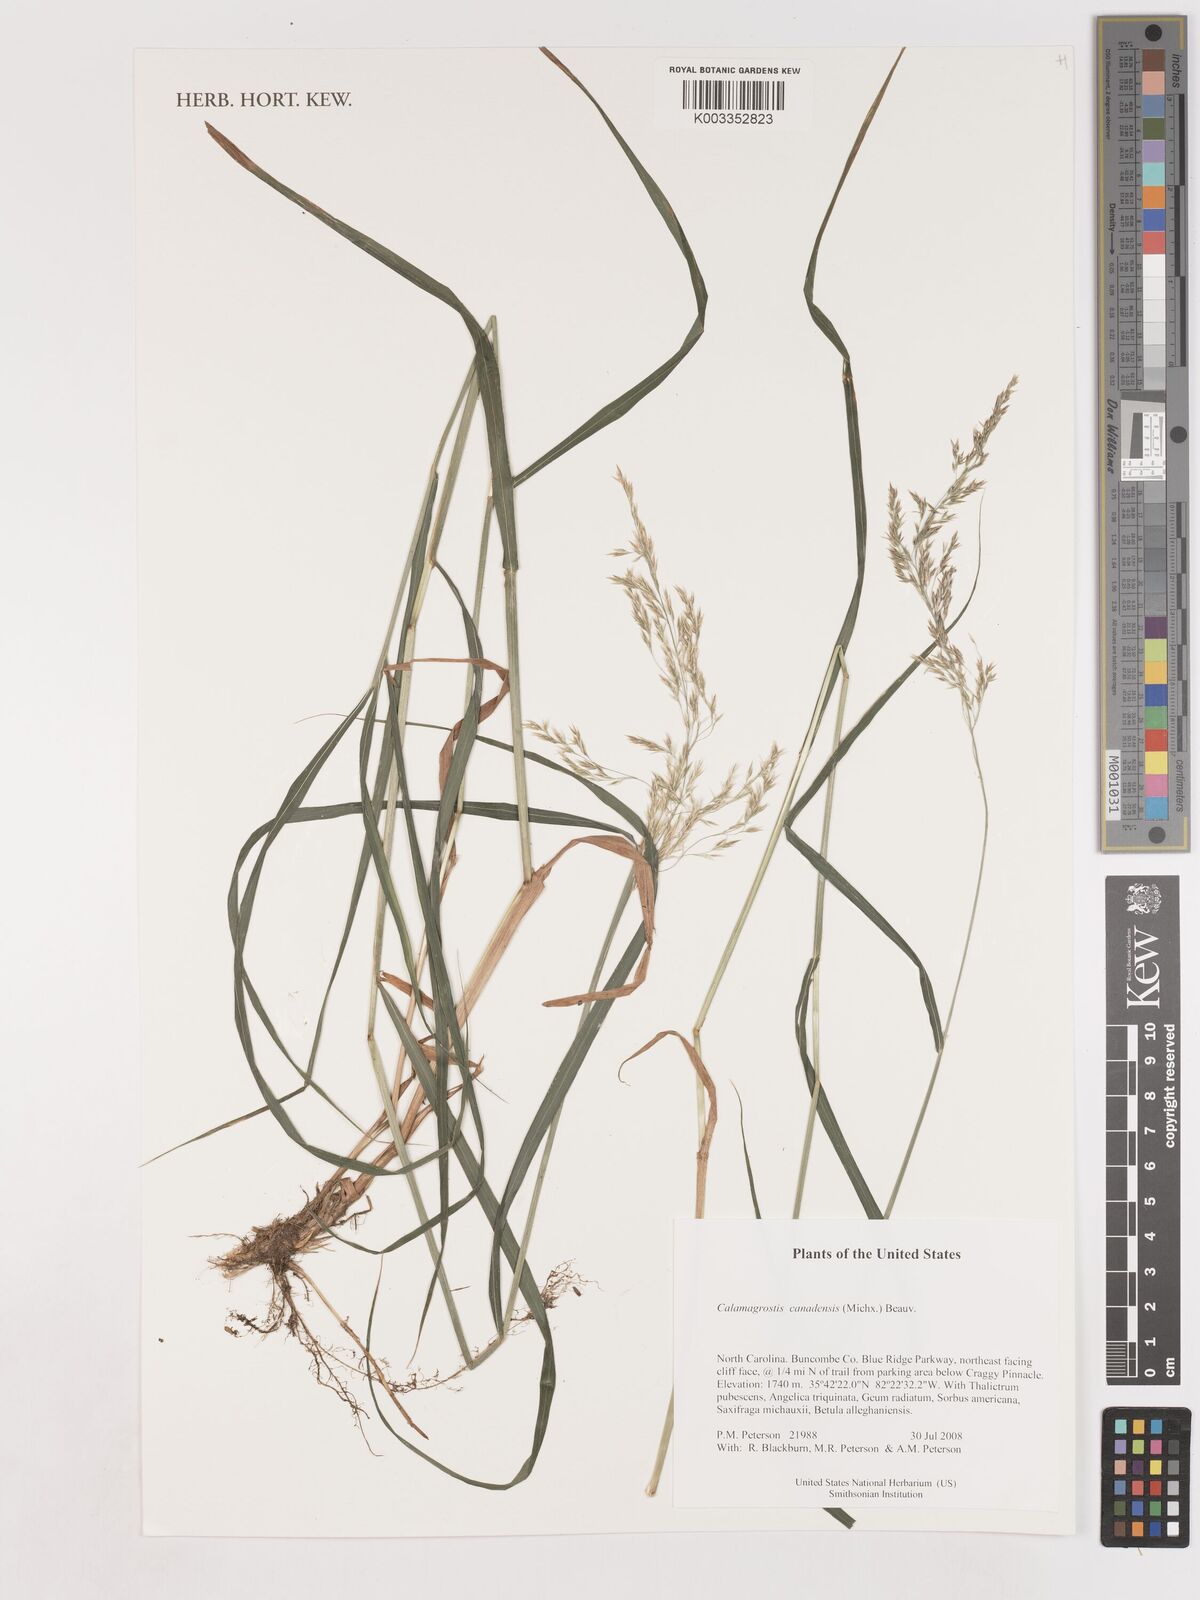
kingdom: Plantae
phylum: Tracheophyta
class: Liliopsida
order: Poales
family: Poaceae
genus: Calamagrostis
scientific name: Calamagrostis canadensis
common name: Canada bluejoint
